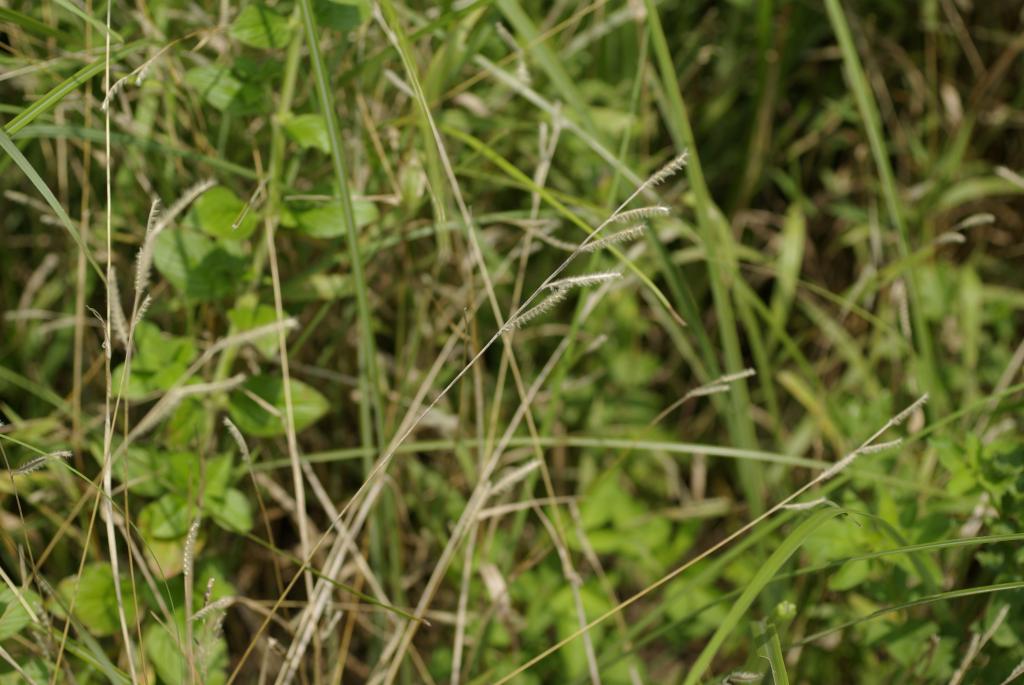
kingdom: Plantae
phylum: Tracheophyta
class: Liliopsida
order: Poales
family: Poaceae
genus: Eriochloa
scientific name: Eriochloa villosa
